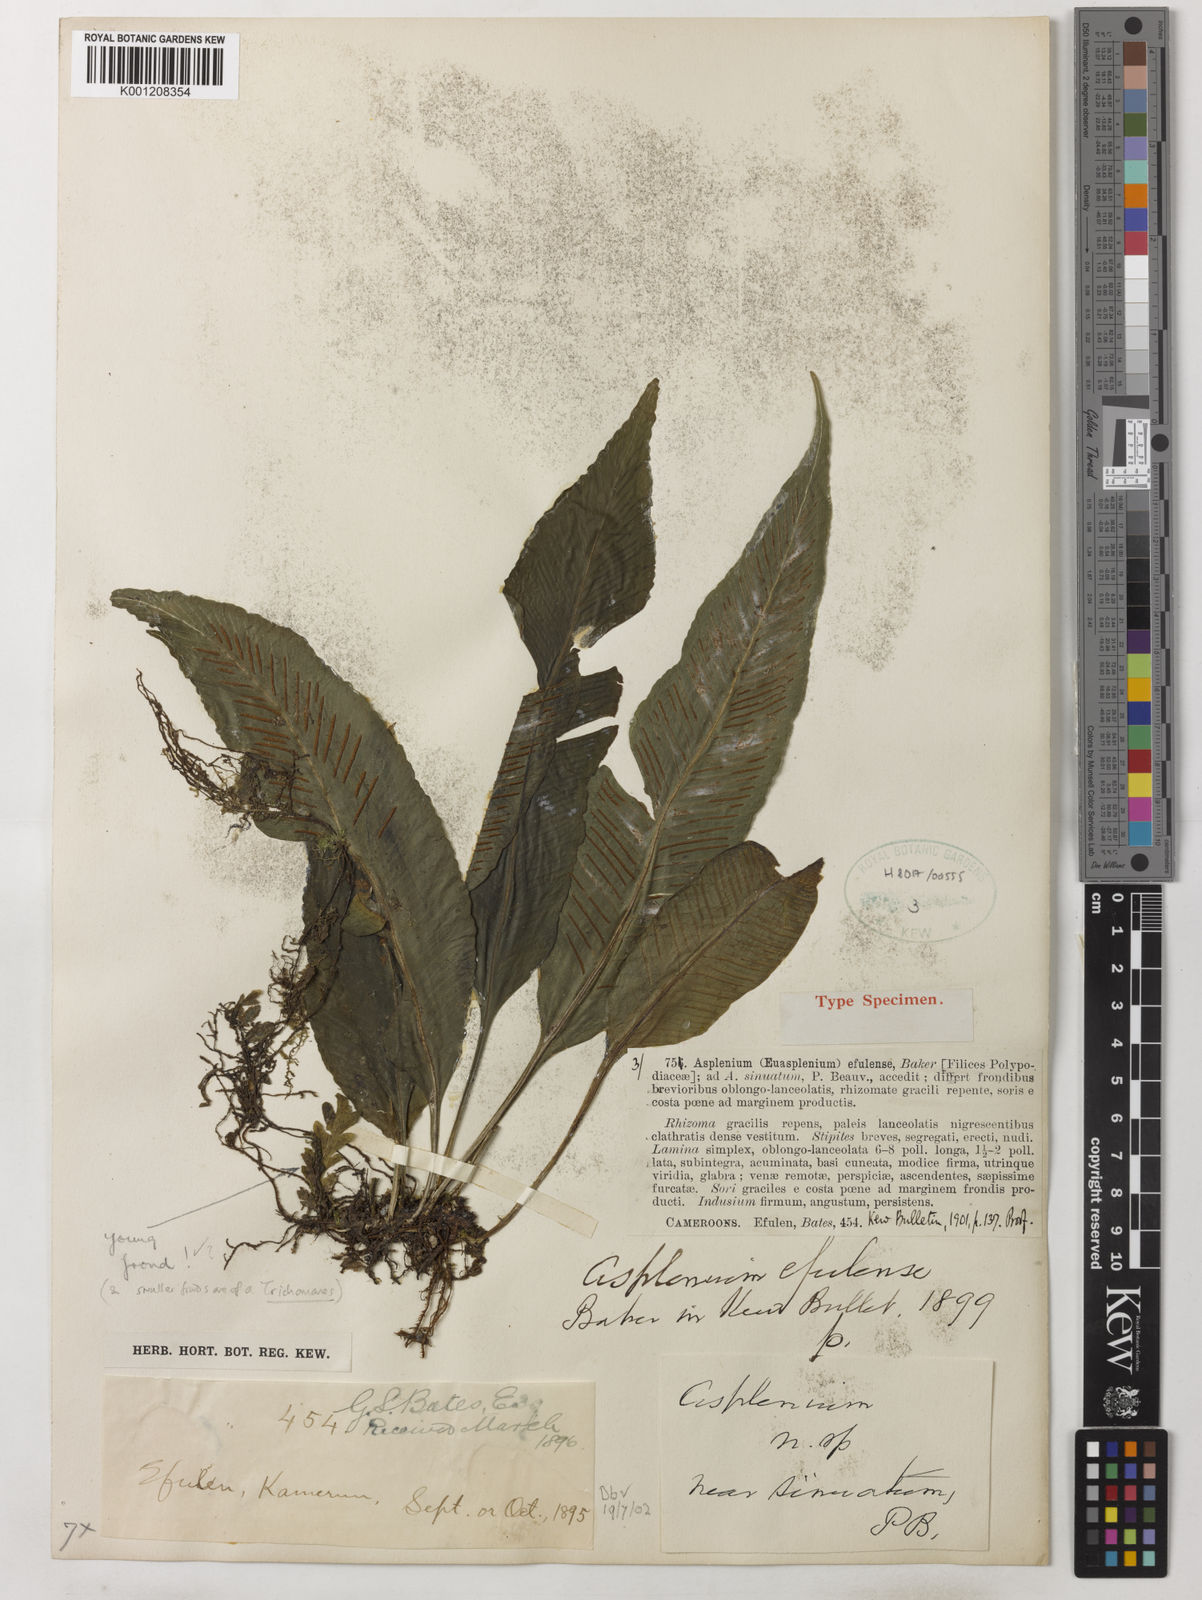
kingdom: Plantae
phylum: Tracheophyta
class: Polypodiopsida
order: Polypodiales
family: Aspleniaceae
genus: Asplenium
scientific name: Asplenium variabile
